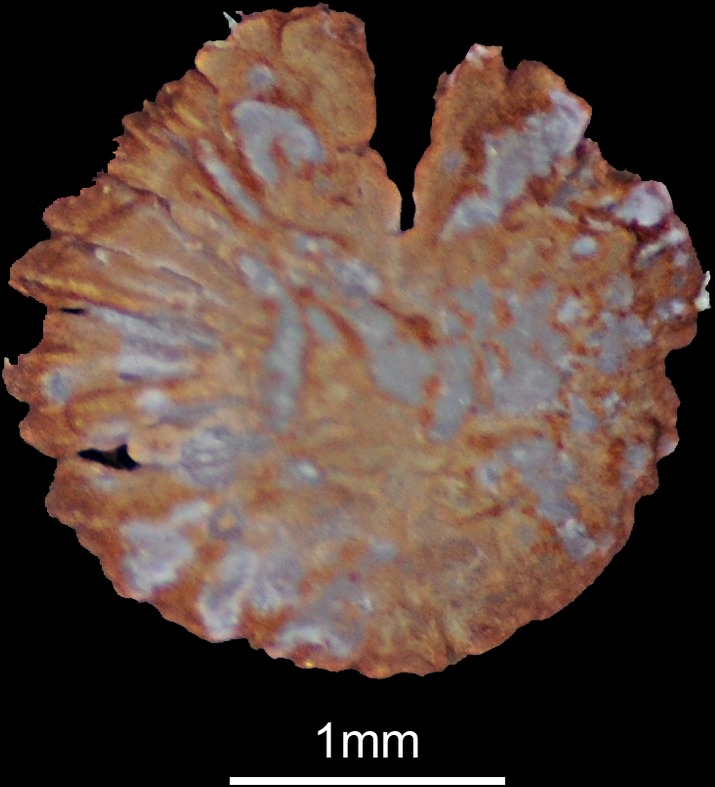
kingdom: Animalia
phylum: Chordata
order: Siluriformes
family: Ictaluridae
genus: Ameiurus
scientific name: Ameiurus nebulosus
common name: Brown bullhead
